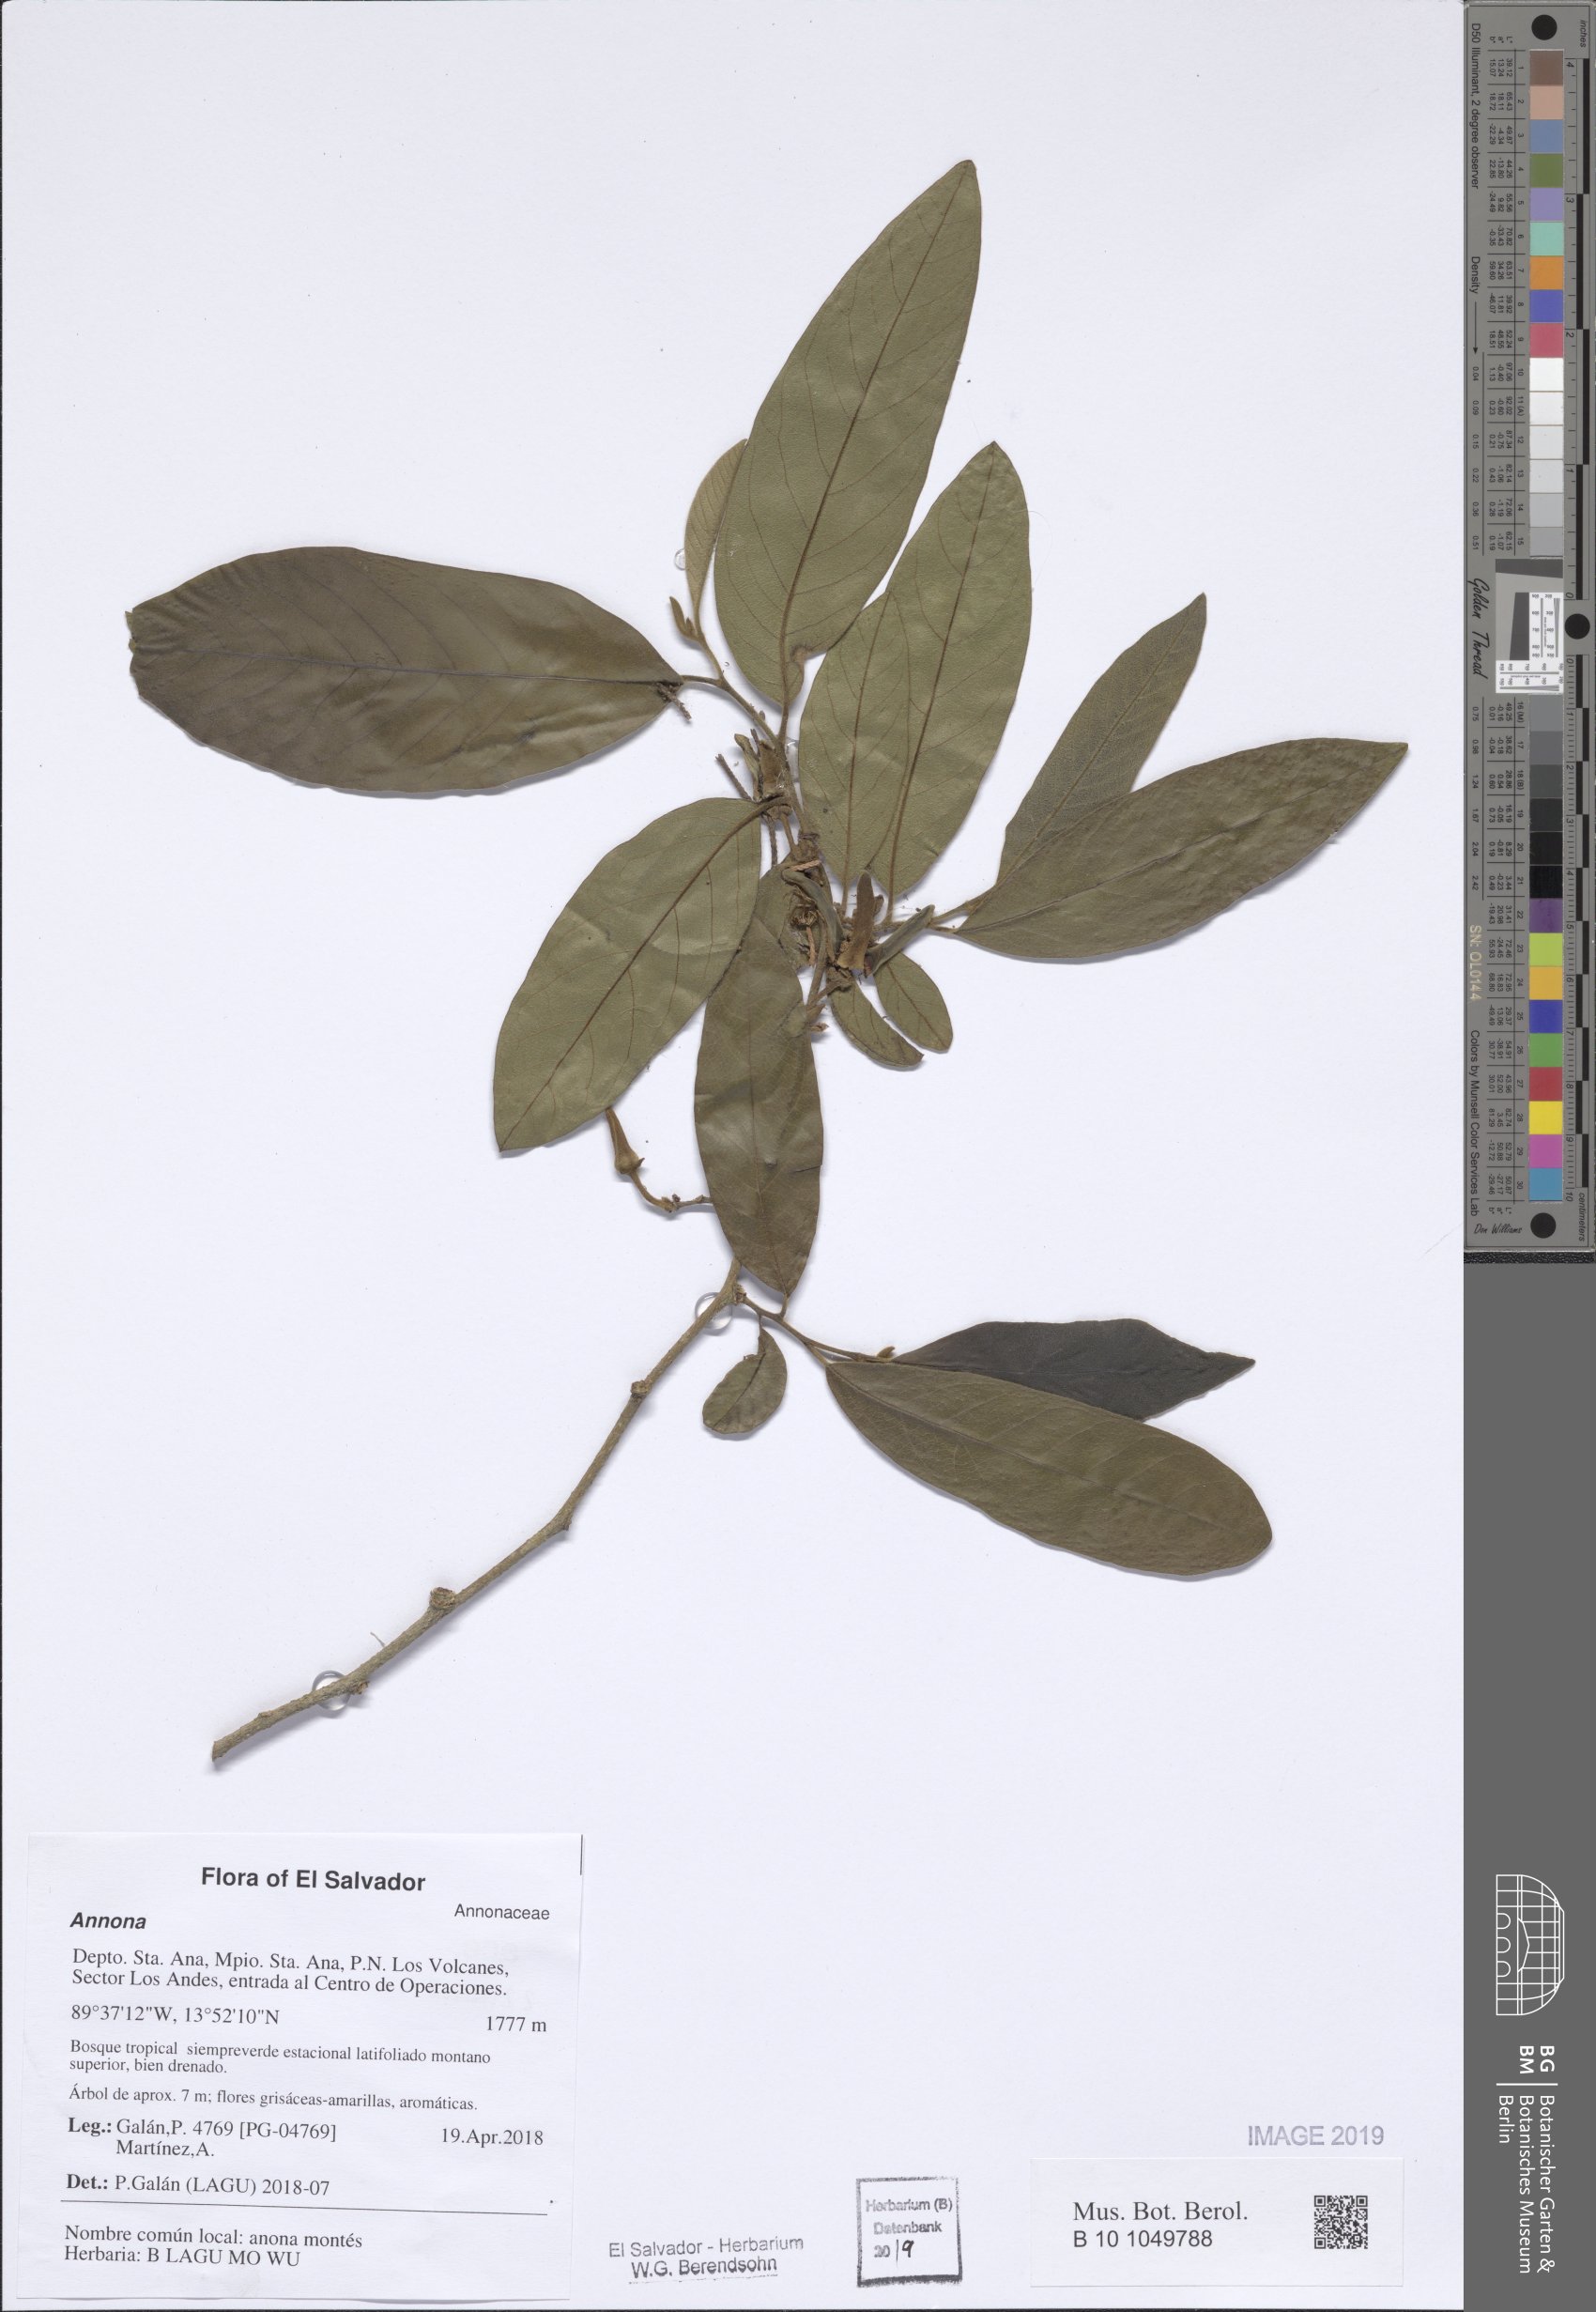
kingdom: Plantae
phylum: Tracheophyta
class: Magnoliopsida
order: Magnoliales
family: Annonaceae
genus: Annona
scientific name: Annona
